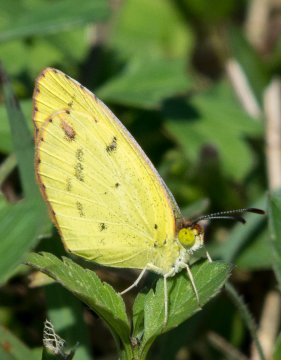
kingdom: Animalia
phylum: Arthropoda
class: Insecta
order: Lepidoptera
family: Pieridae
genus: Pyrisitia
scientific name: Pyrisitia lisa
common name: Little Yellow
